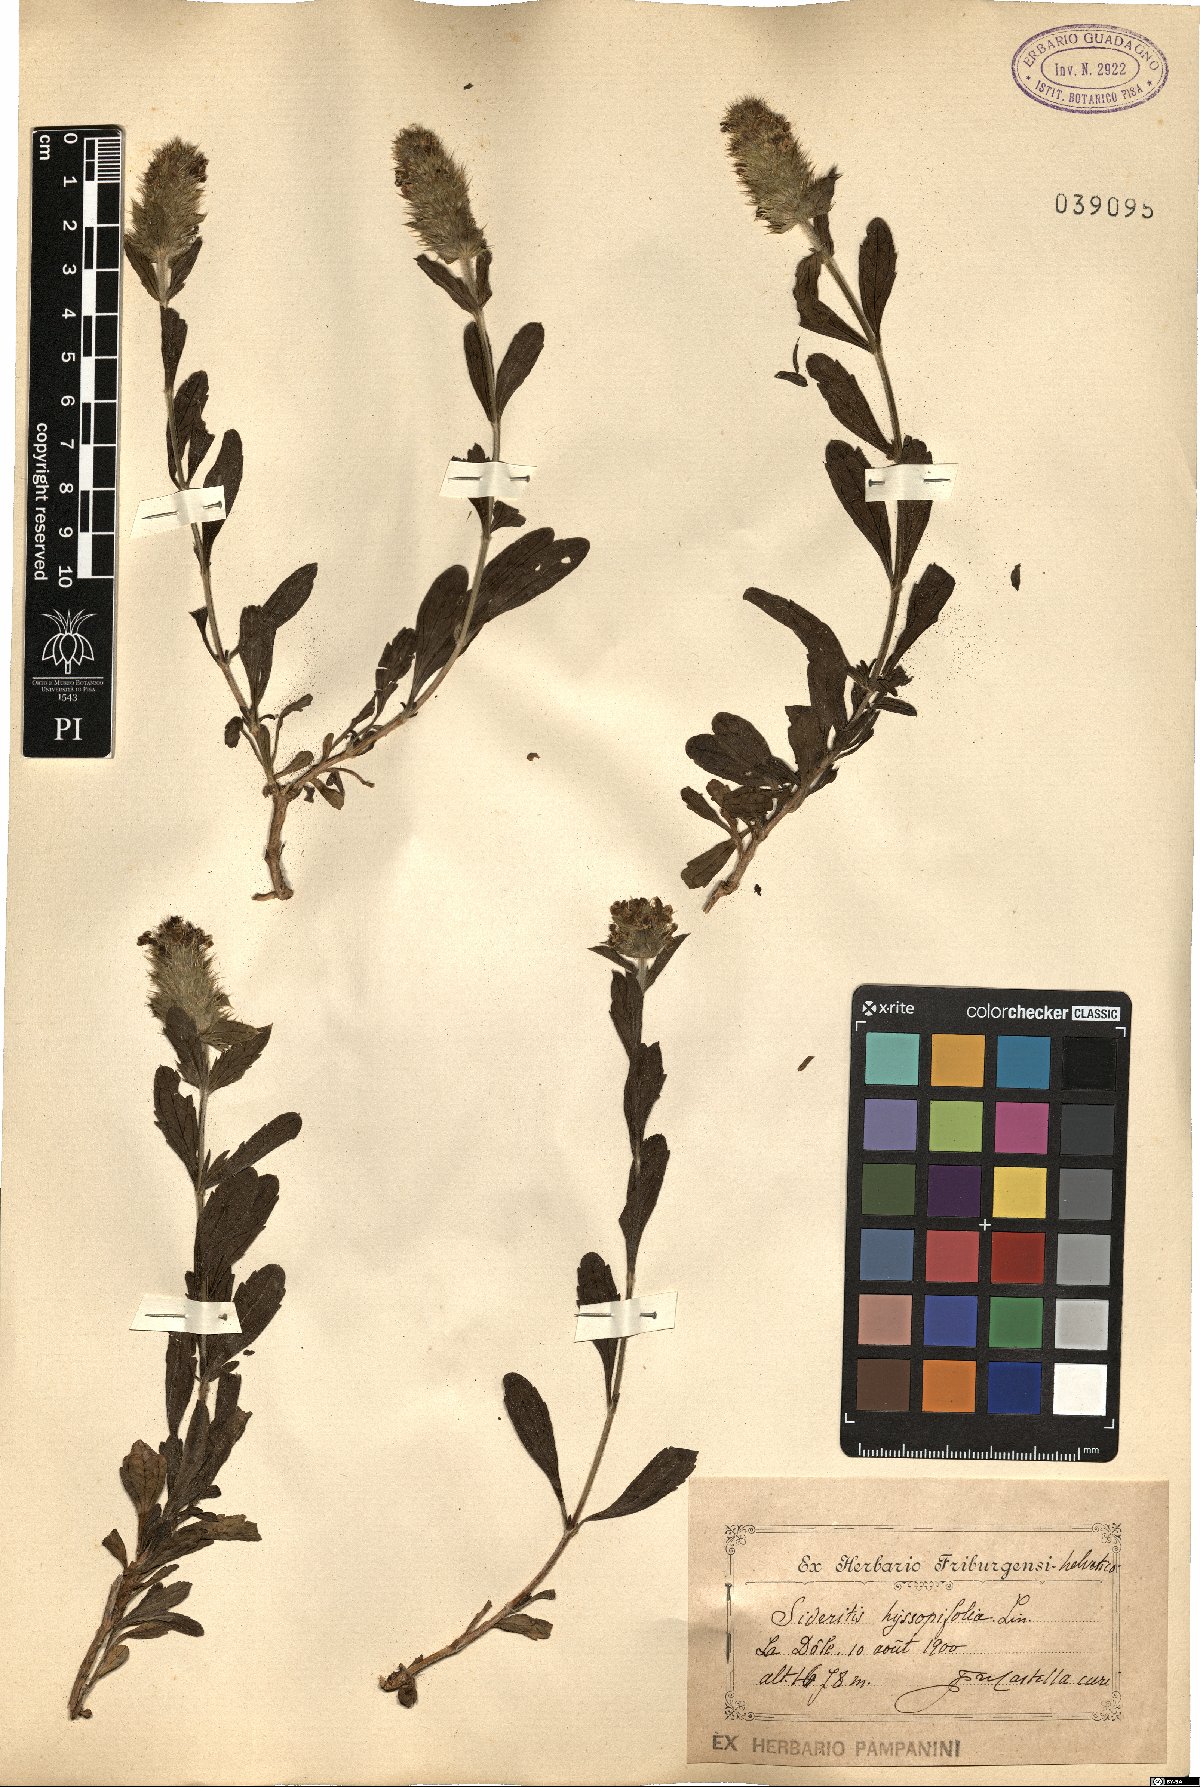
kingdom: Plantae
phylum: Tracheophyta
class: Magnoliopsida
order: Lamiales
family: Lamiaceae
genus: Sideritis
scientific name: Sideritis hyssopifolia
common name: Mountain tea
